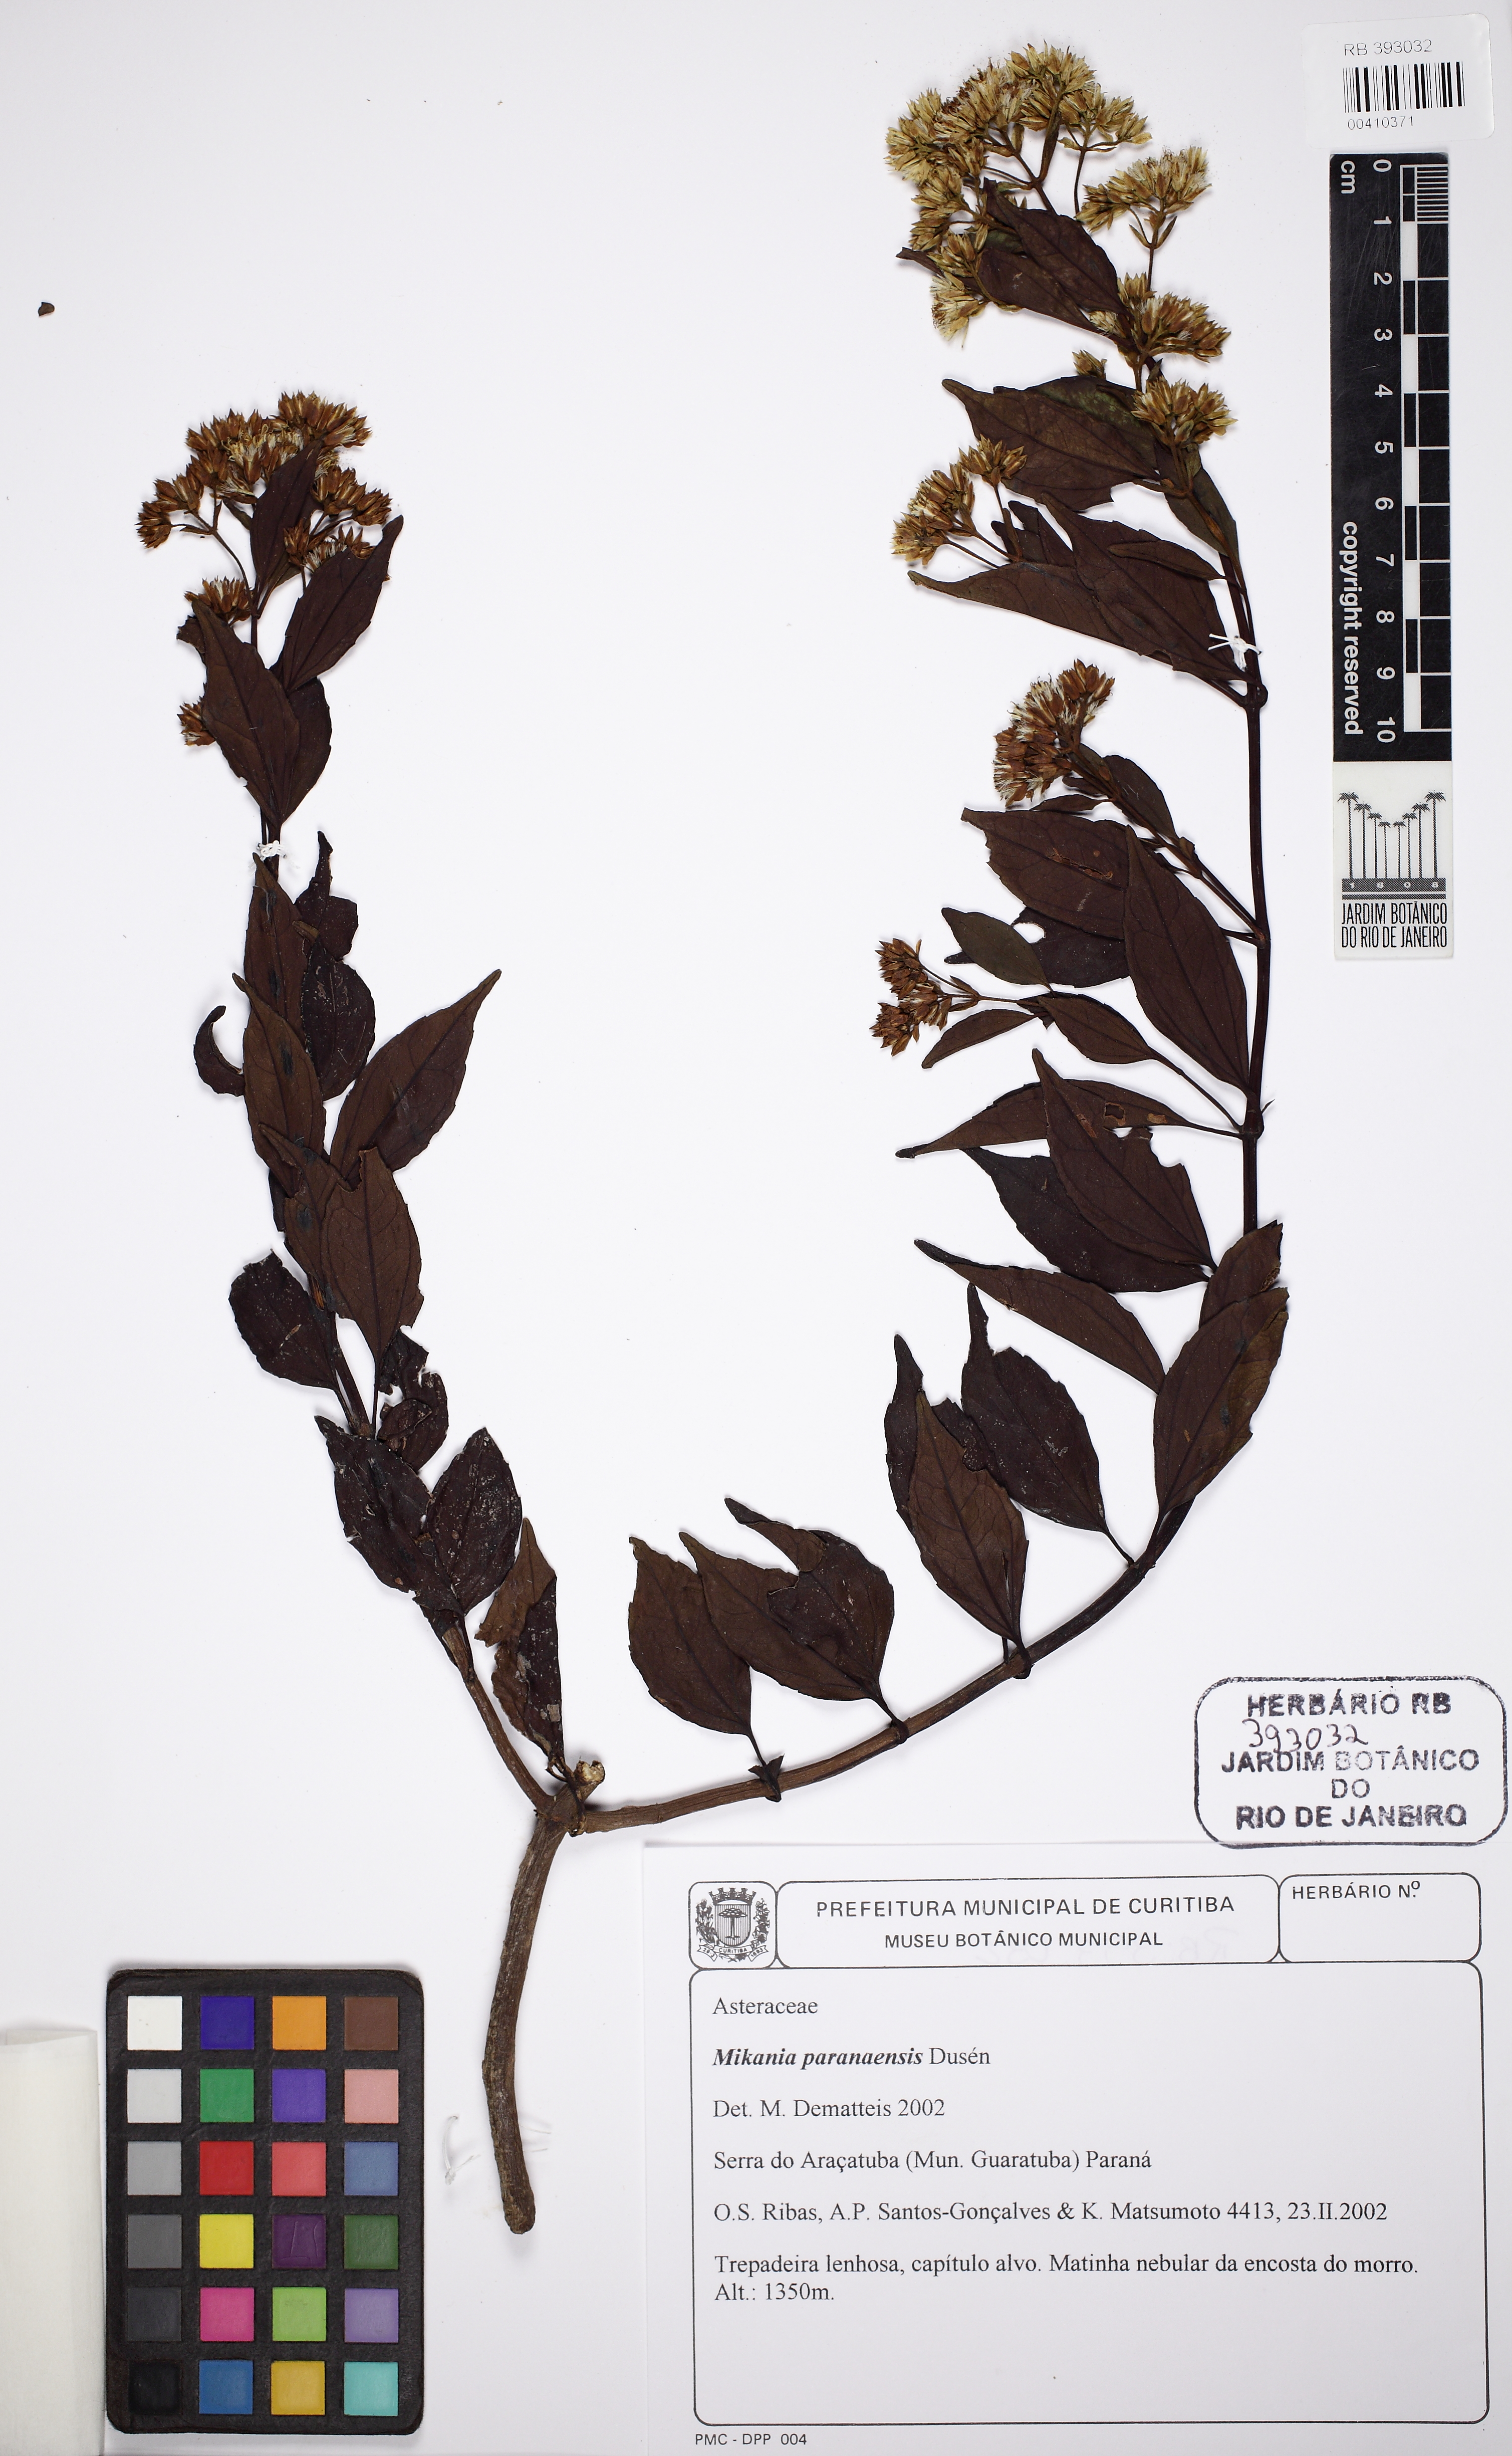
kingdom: Plantae
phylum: Tracheophyta
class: Magnoliopsida
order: Asterales
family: Asteraceae
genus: Mikania
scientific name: Mikania paranensis
